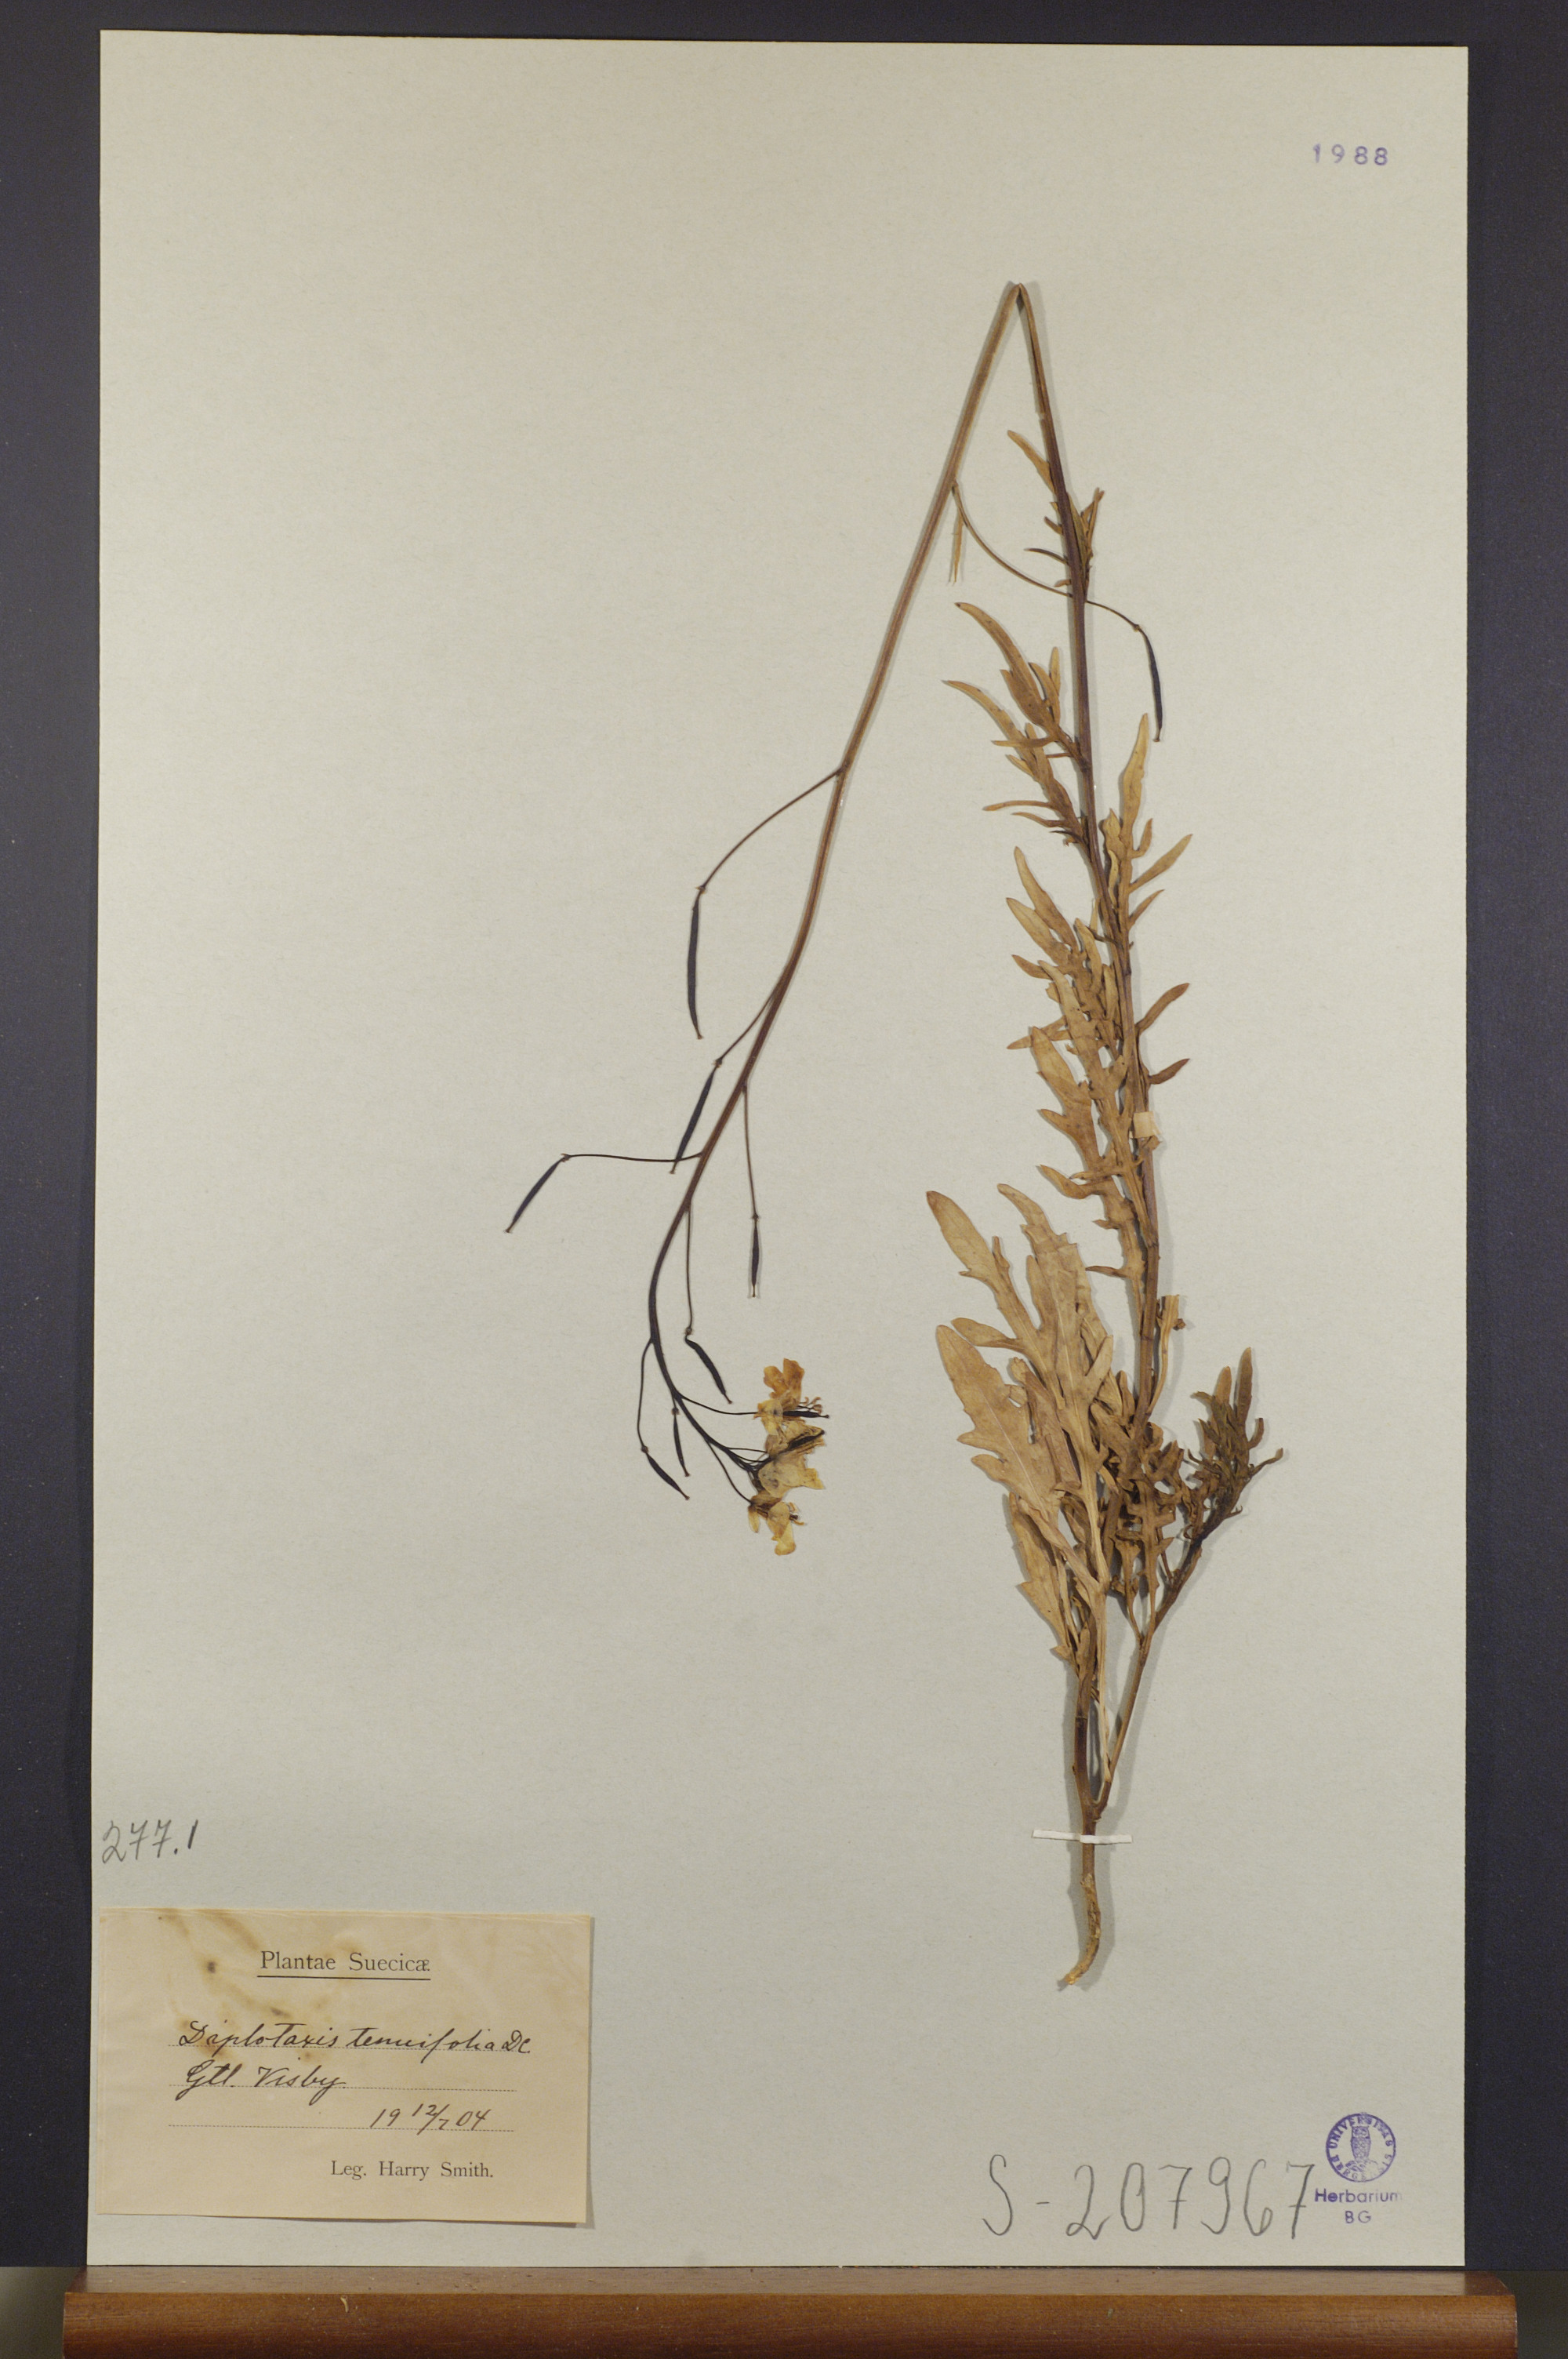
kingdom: Plantae
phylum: Tracheophyta
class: Magnoliopsida
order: Brassicales
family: Brassicaceae
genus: Diplotaxis
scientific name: Diplotaxis tenuifolia
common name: Perennial wall-rocket
